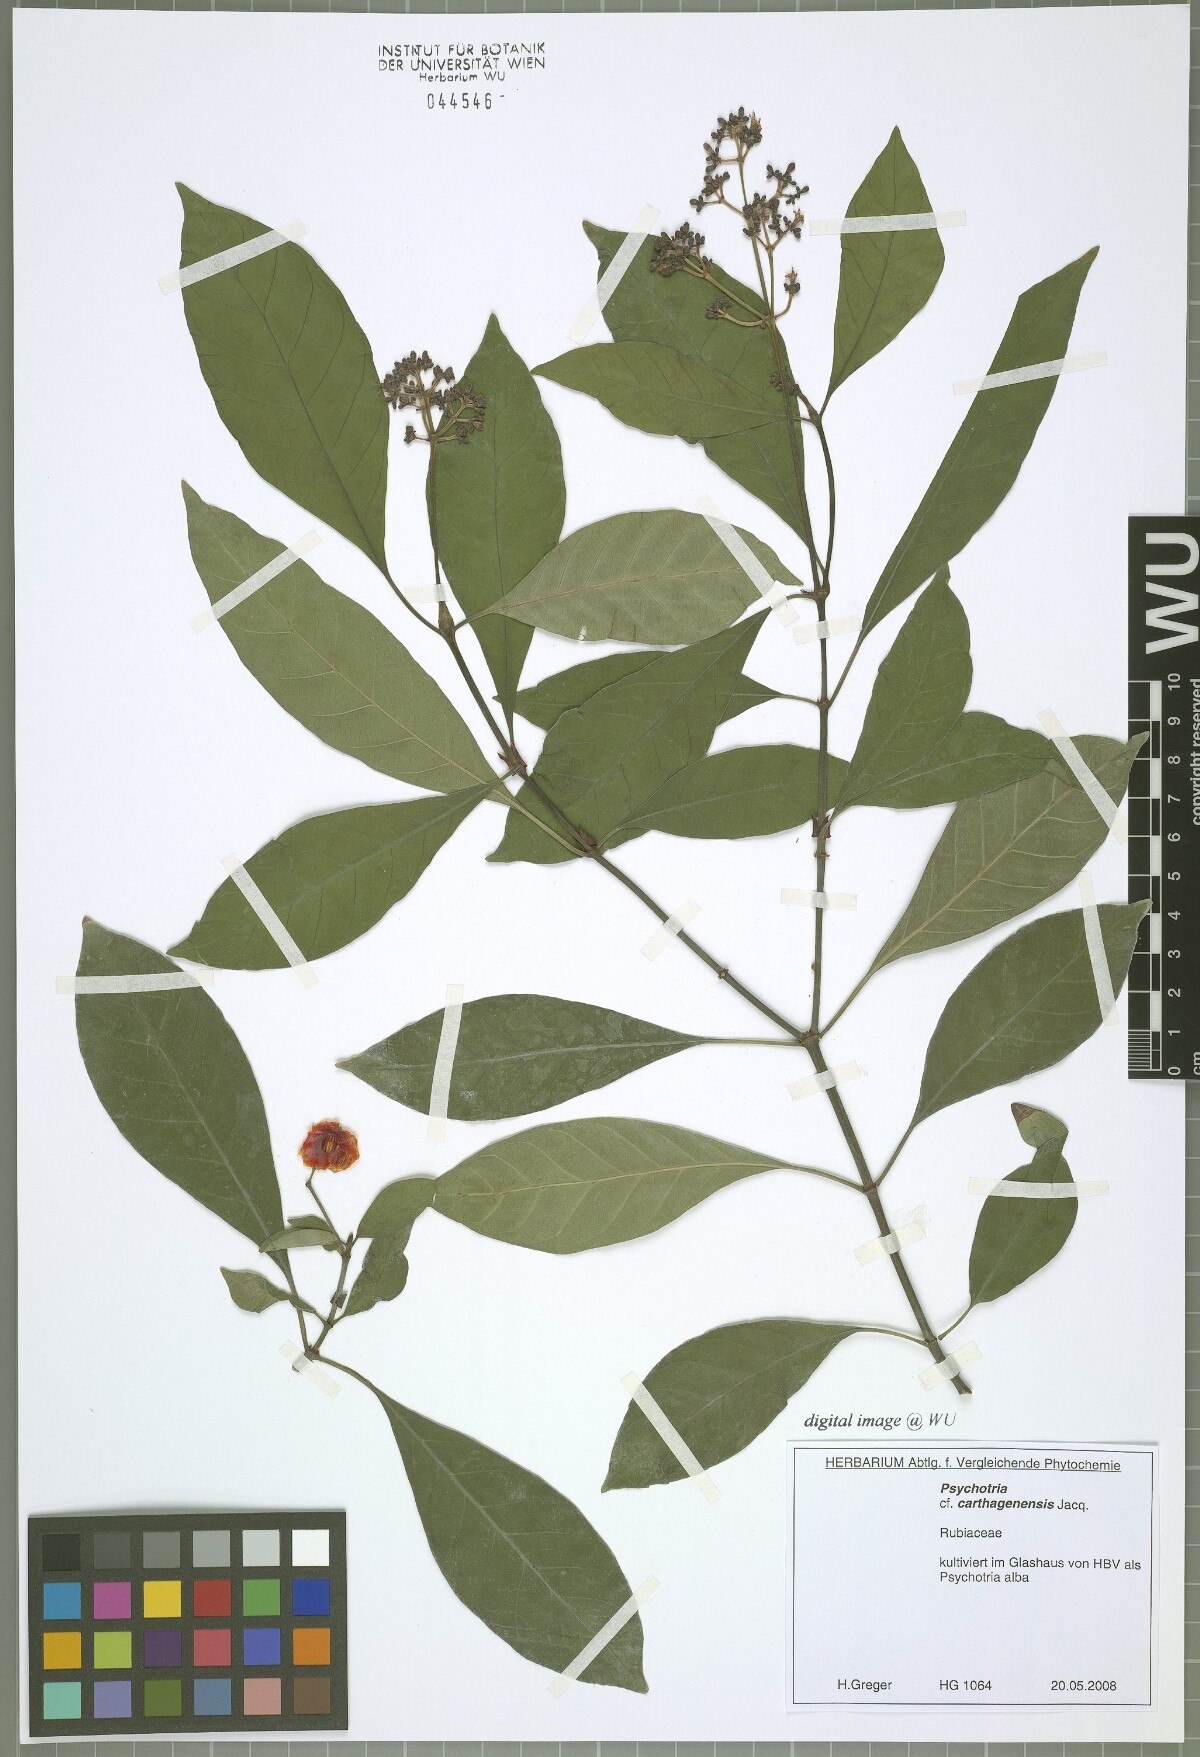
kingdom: Plantae
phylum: Tracheophyta
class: Magnoliopsida
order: Gentianales
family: Rubiaceae
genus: Psychotria
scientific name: Psychotria carthagenensis
